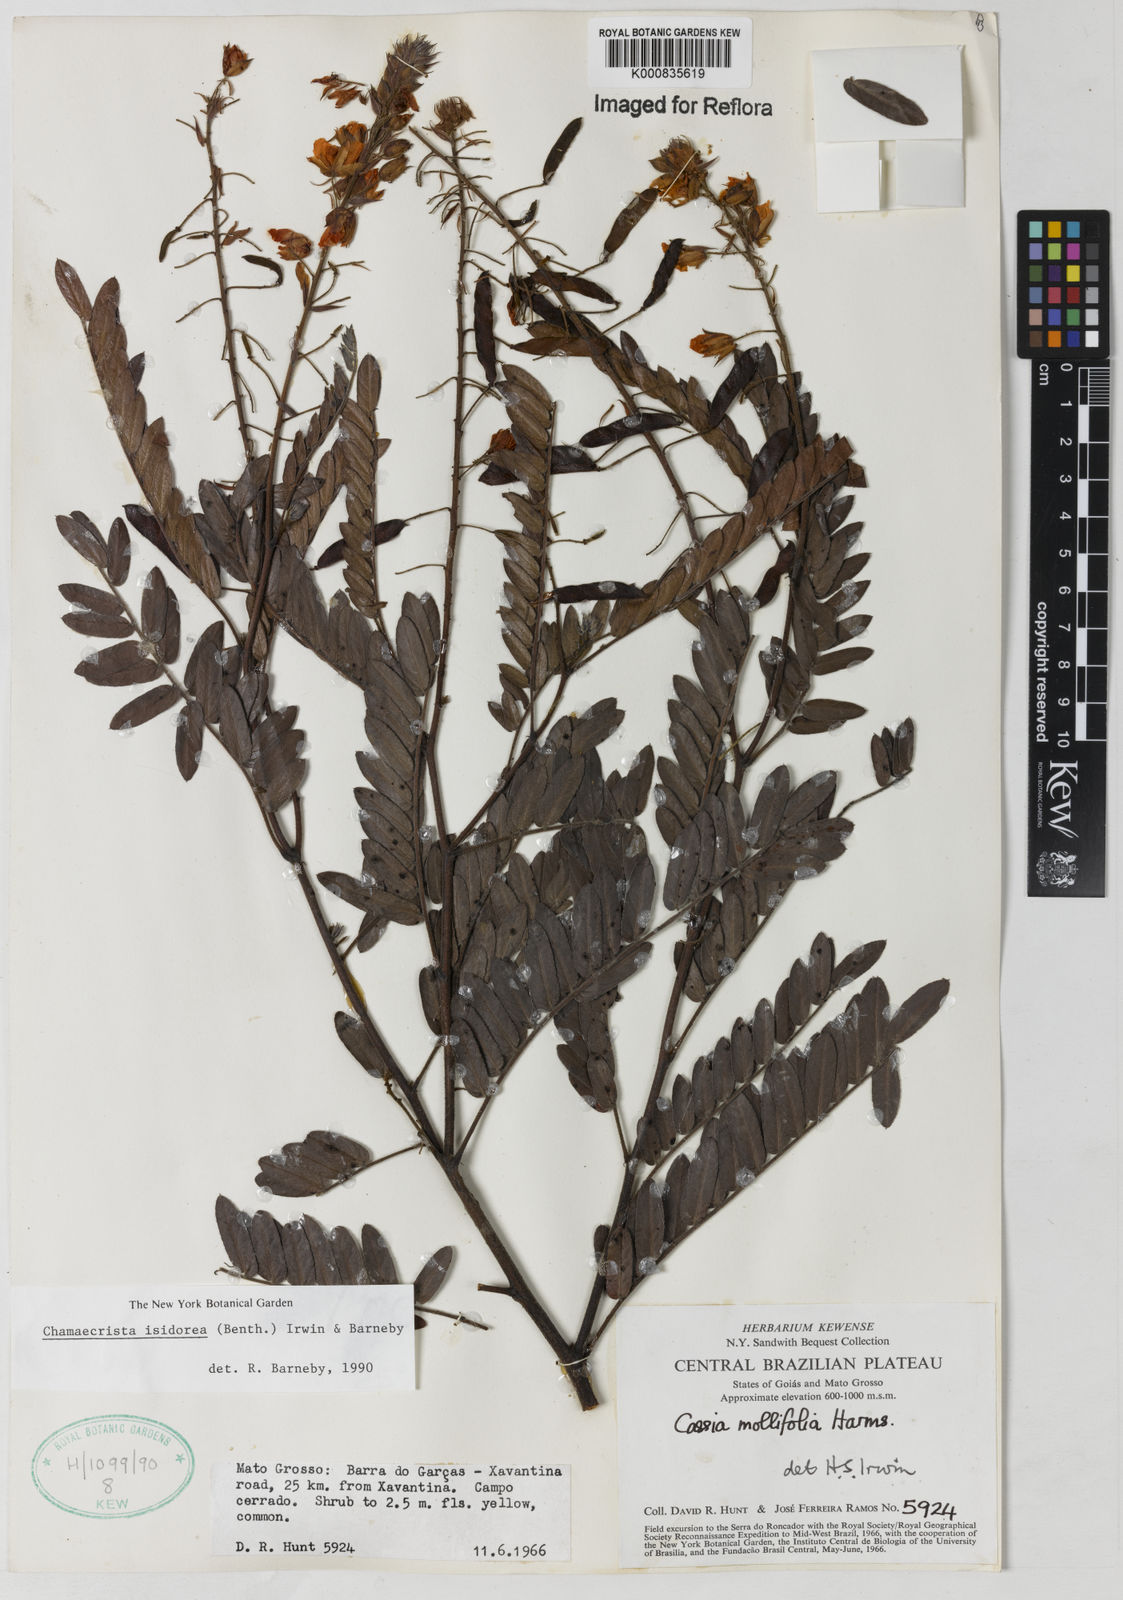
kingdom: Plantae
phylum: Tracheophyta
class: Magnoliopsida
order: Fabales
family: Fabaceae
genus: Chamaecrista
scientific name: Chamaecrista isidorea
